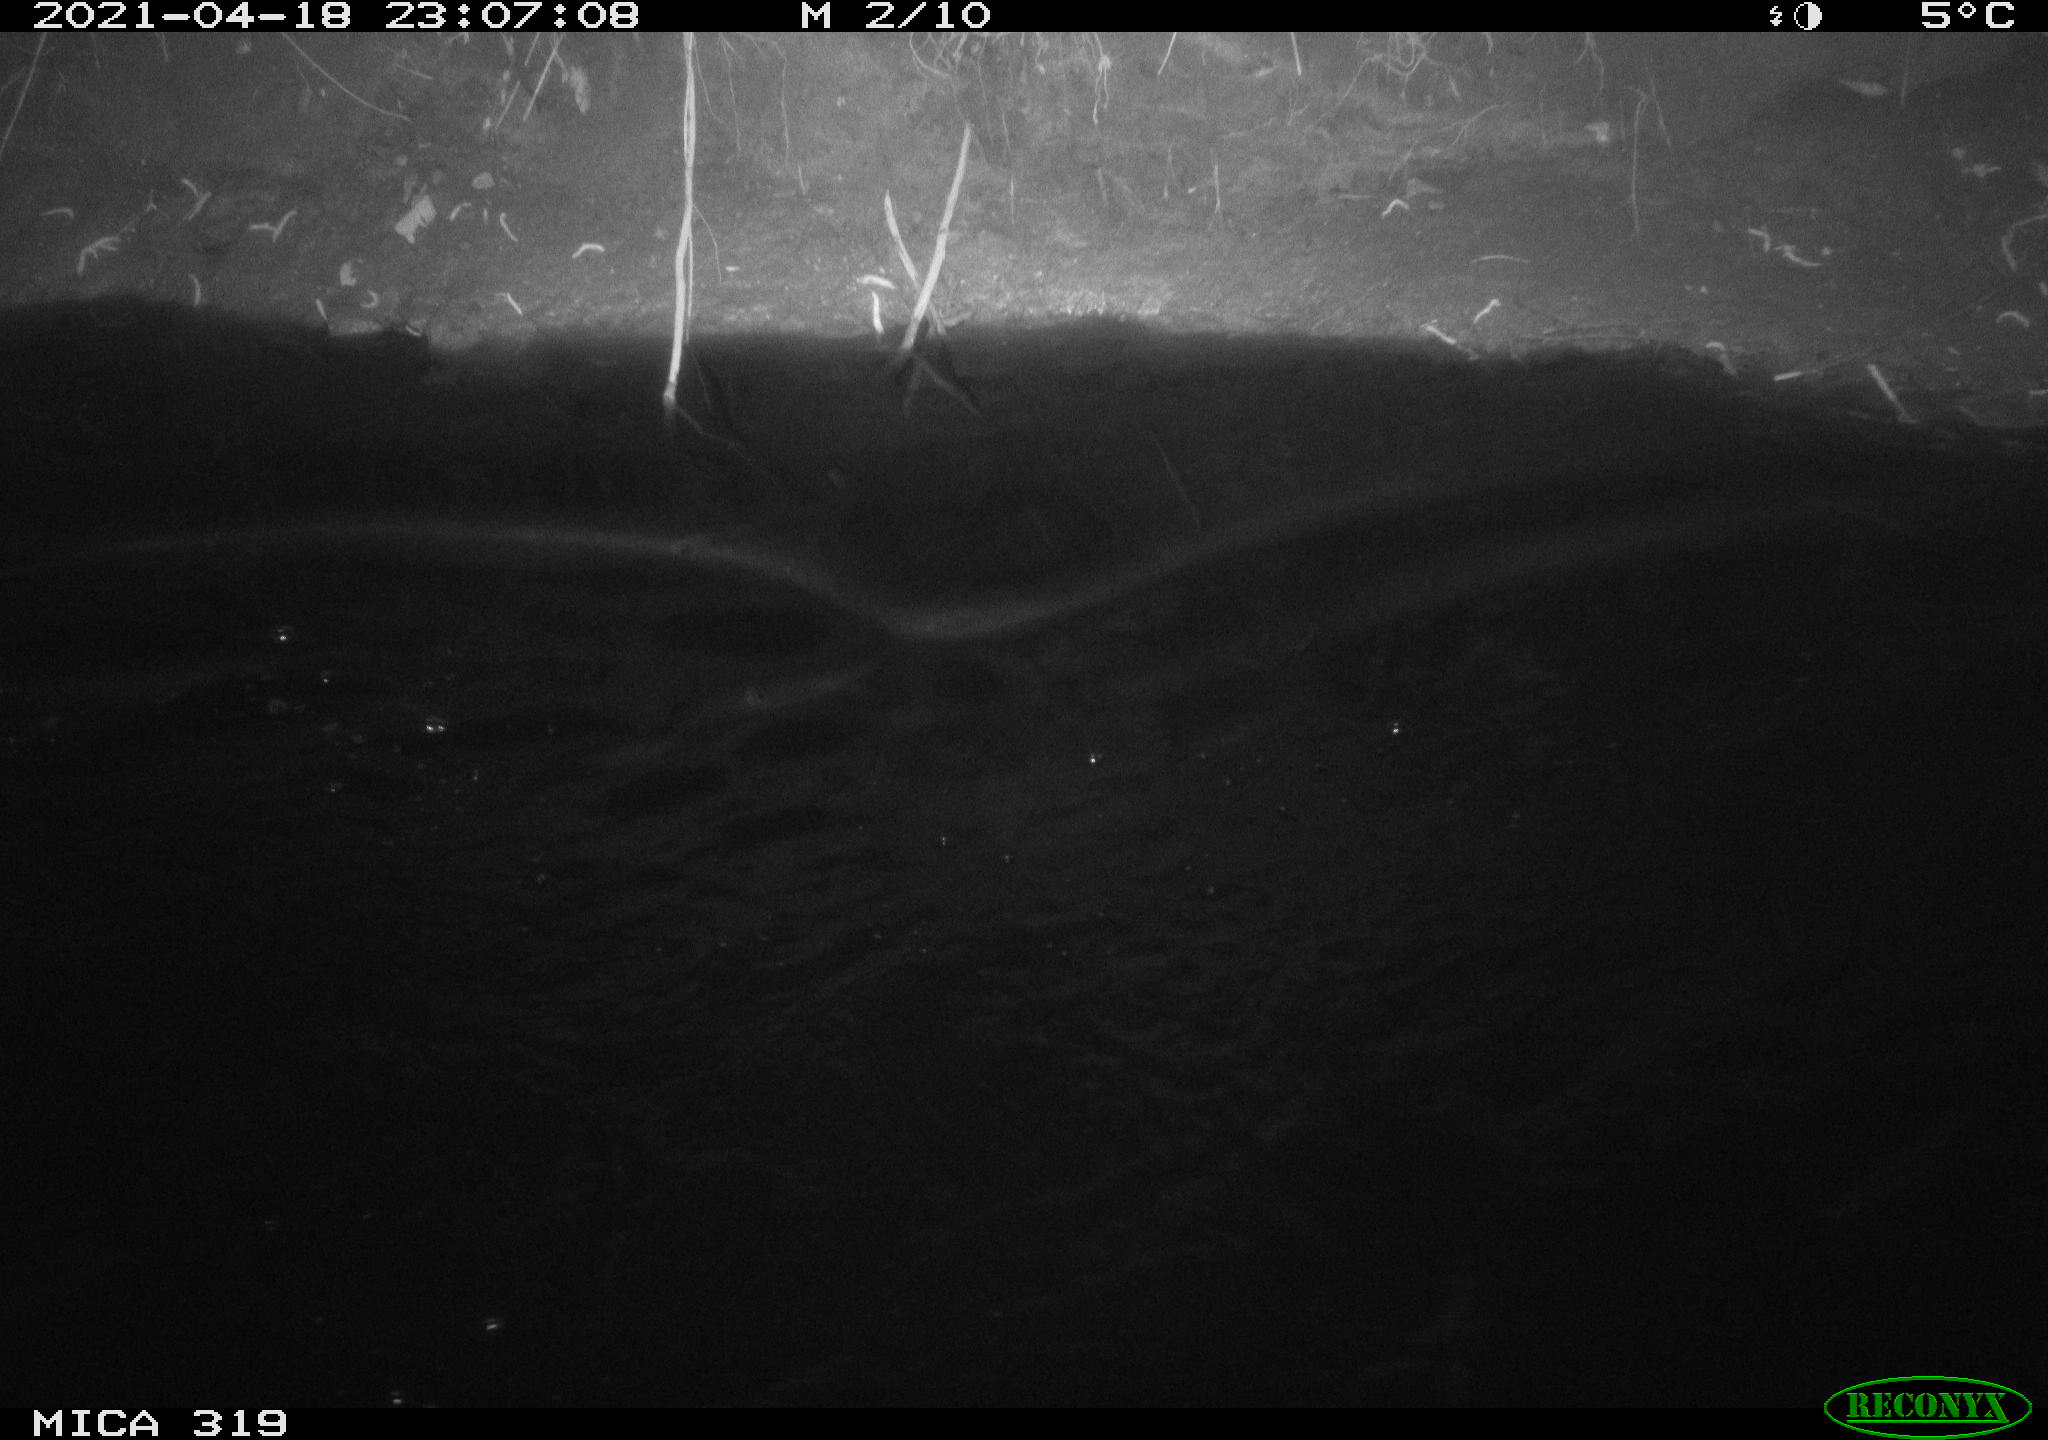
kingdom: Animalia
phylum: Chordata
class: Aves
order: Anseriformes
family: Anatidae
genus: Anas
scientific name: Anas platyrhynchos
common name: Mallard
